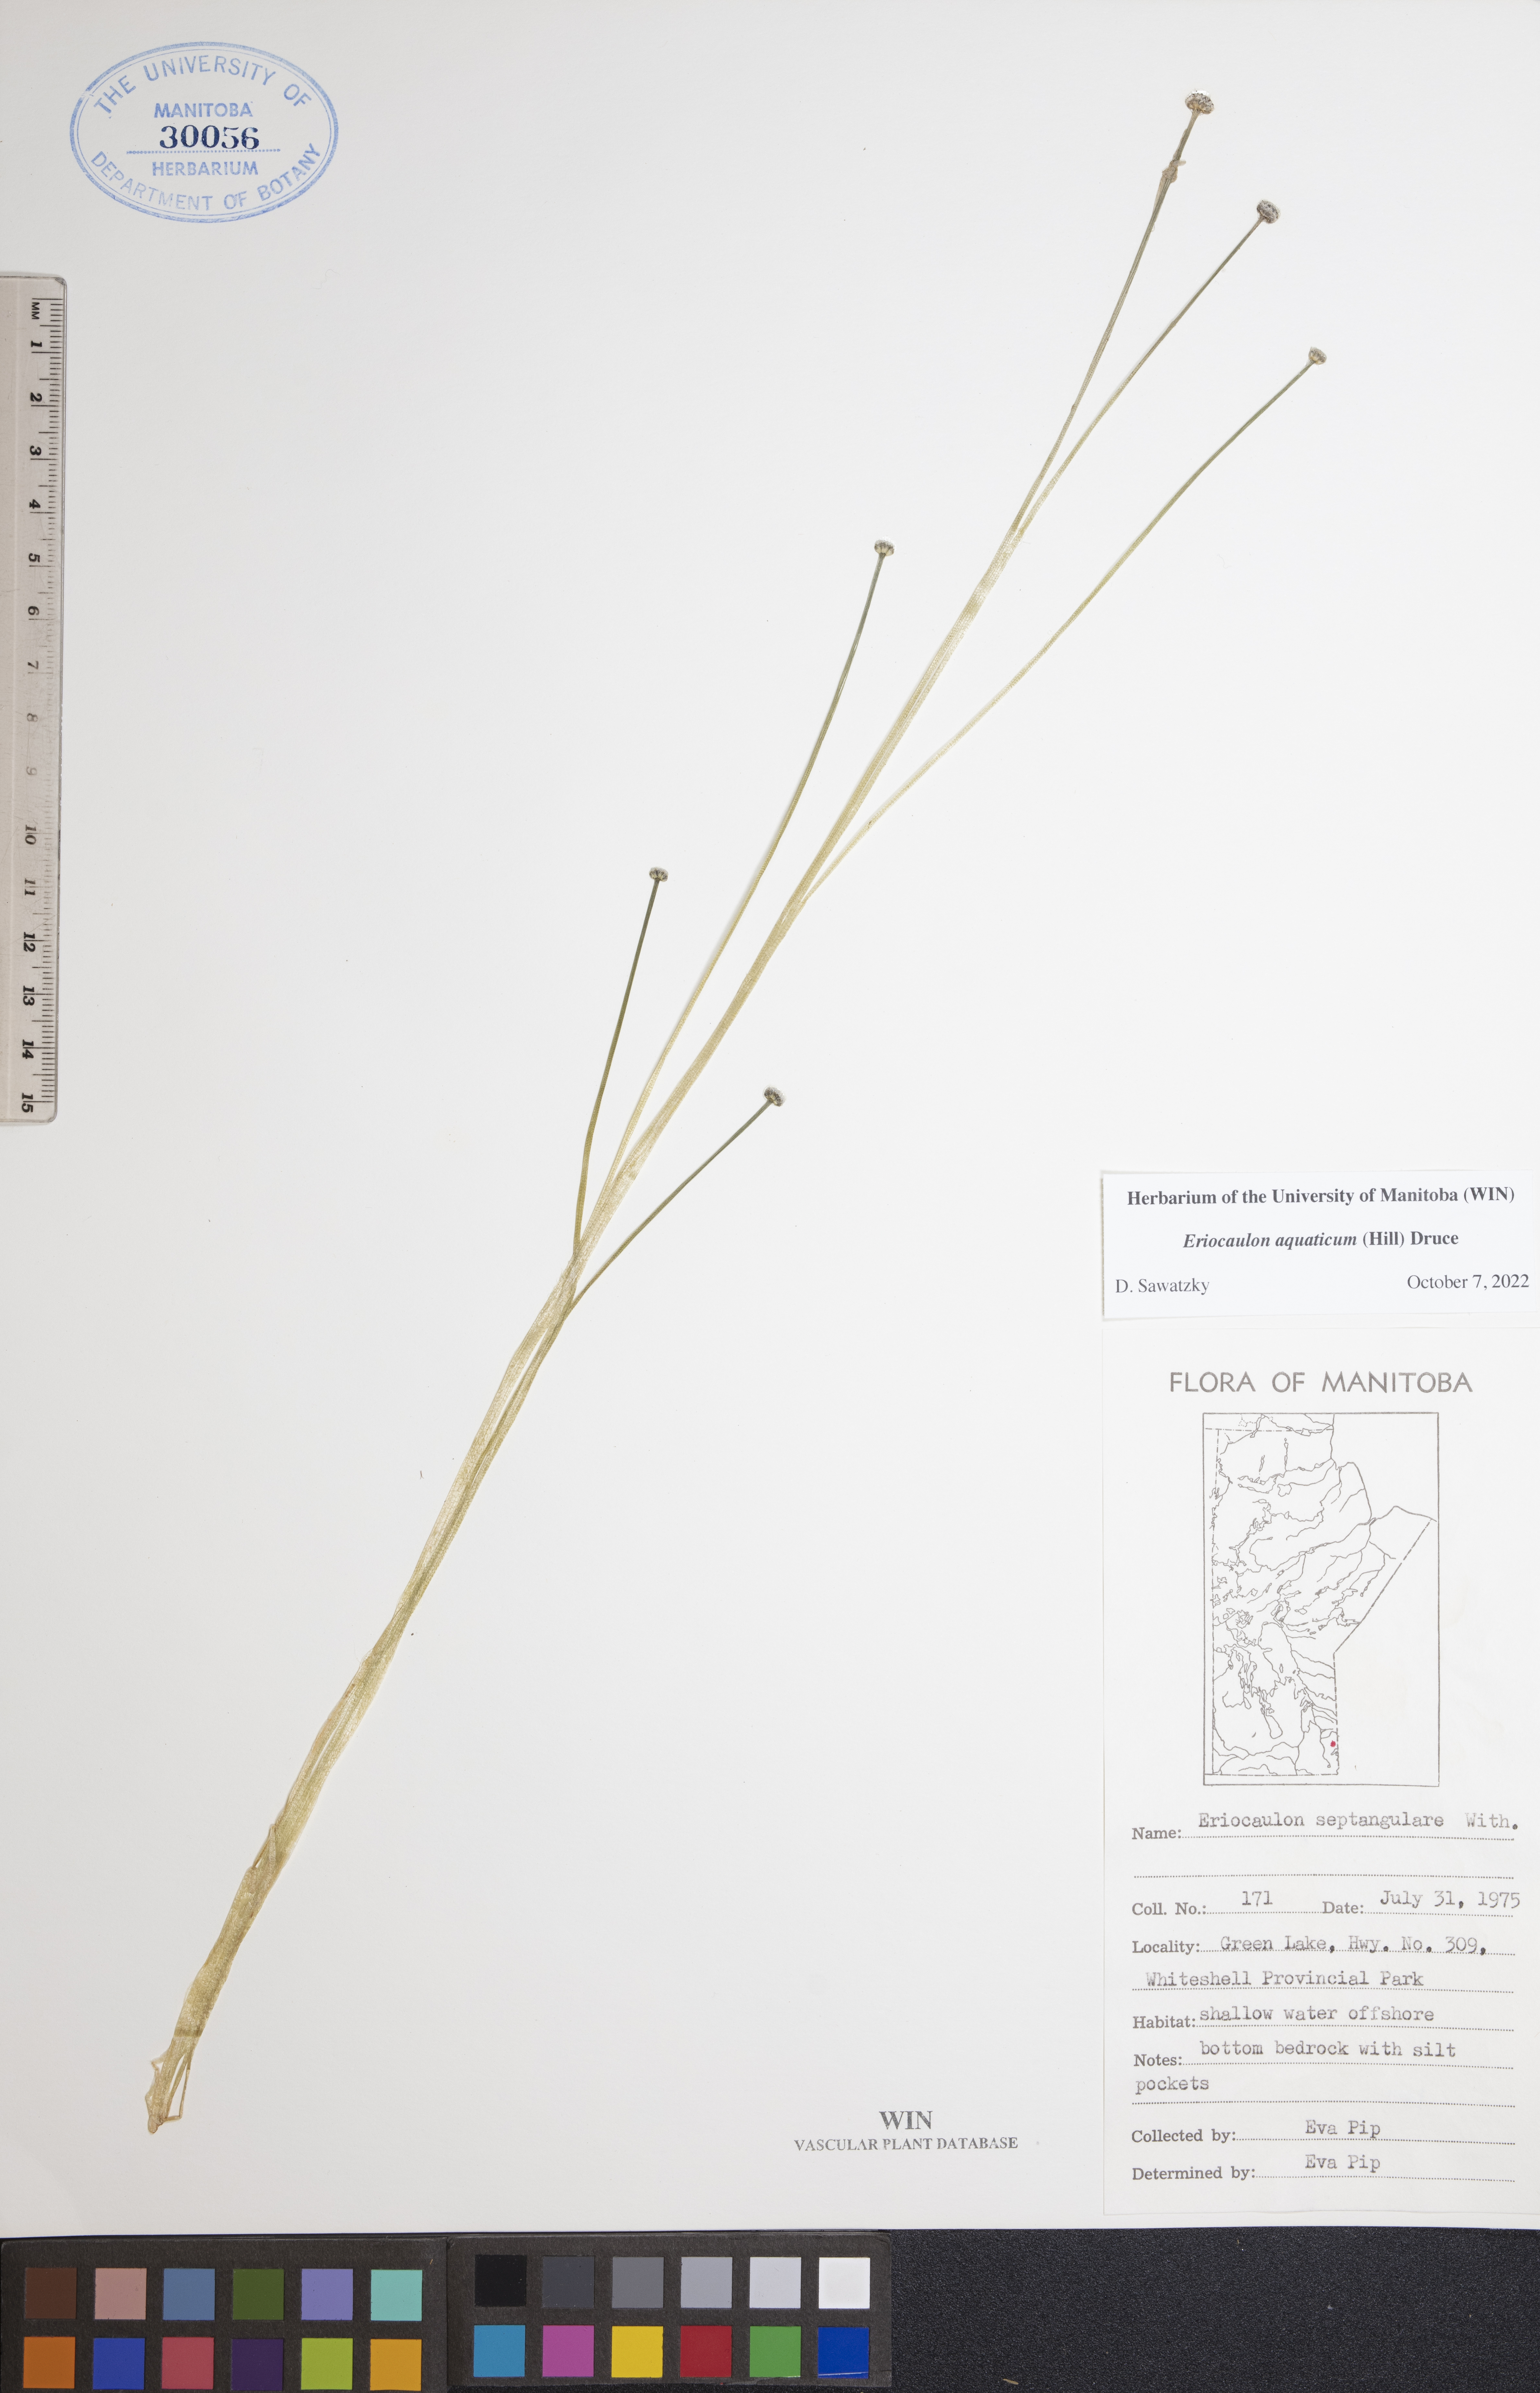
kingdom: Plantae
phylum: Tracheophyta
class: Liliopsida
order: Poales
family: Eriocaulaceae
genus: Eriocaulon
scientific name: Eriocaulon aquaticum
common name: Pipewort
